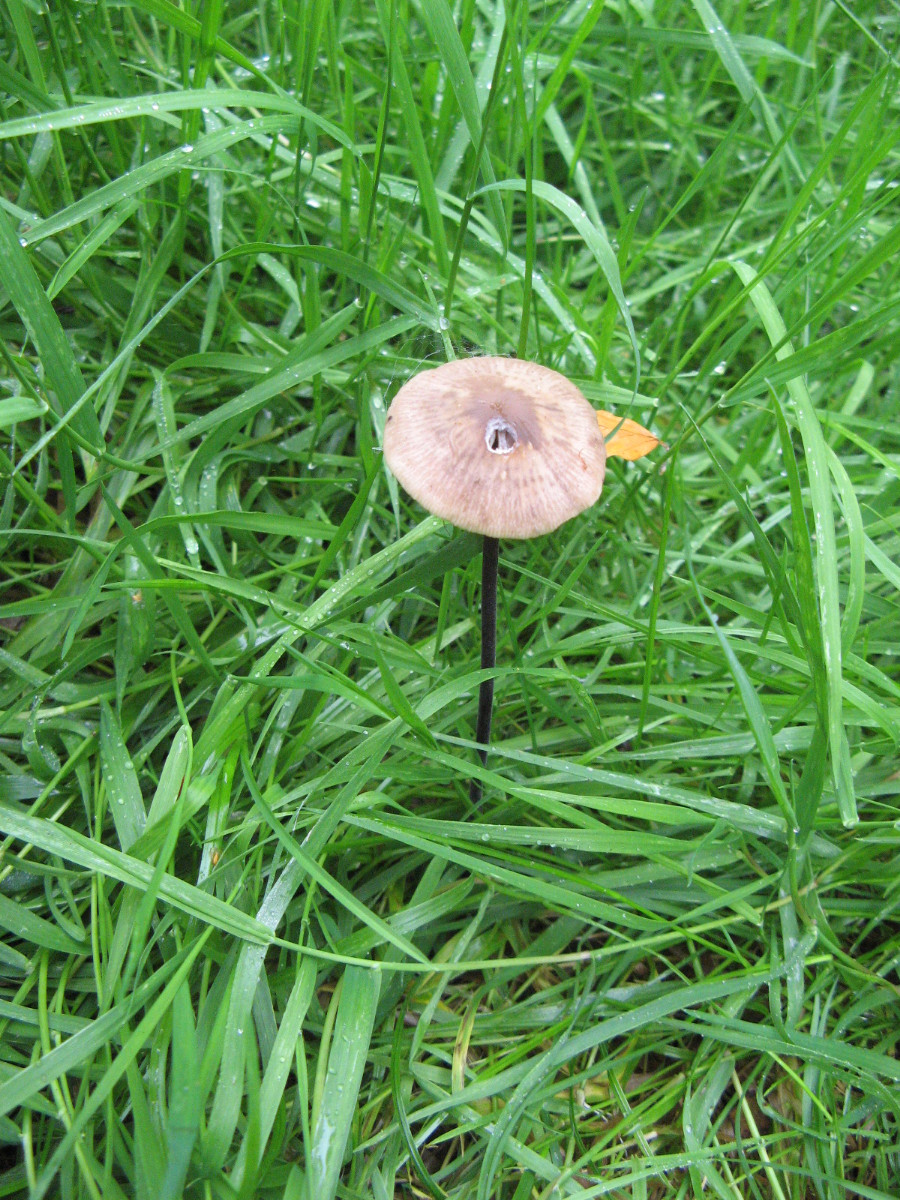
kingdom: Fungi
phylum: Basidiomycota
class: Agaricomycetes
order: Agaricales
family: Omphalotaceae
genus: Mycetinis
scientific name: Mycetinis alliaceus
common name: stor løghat
